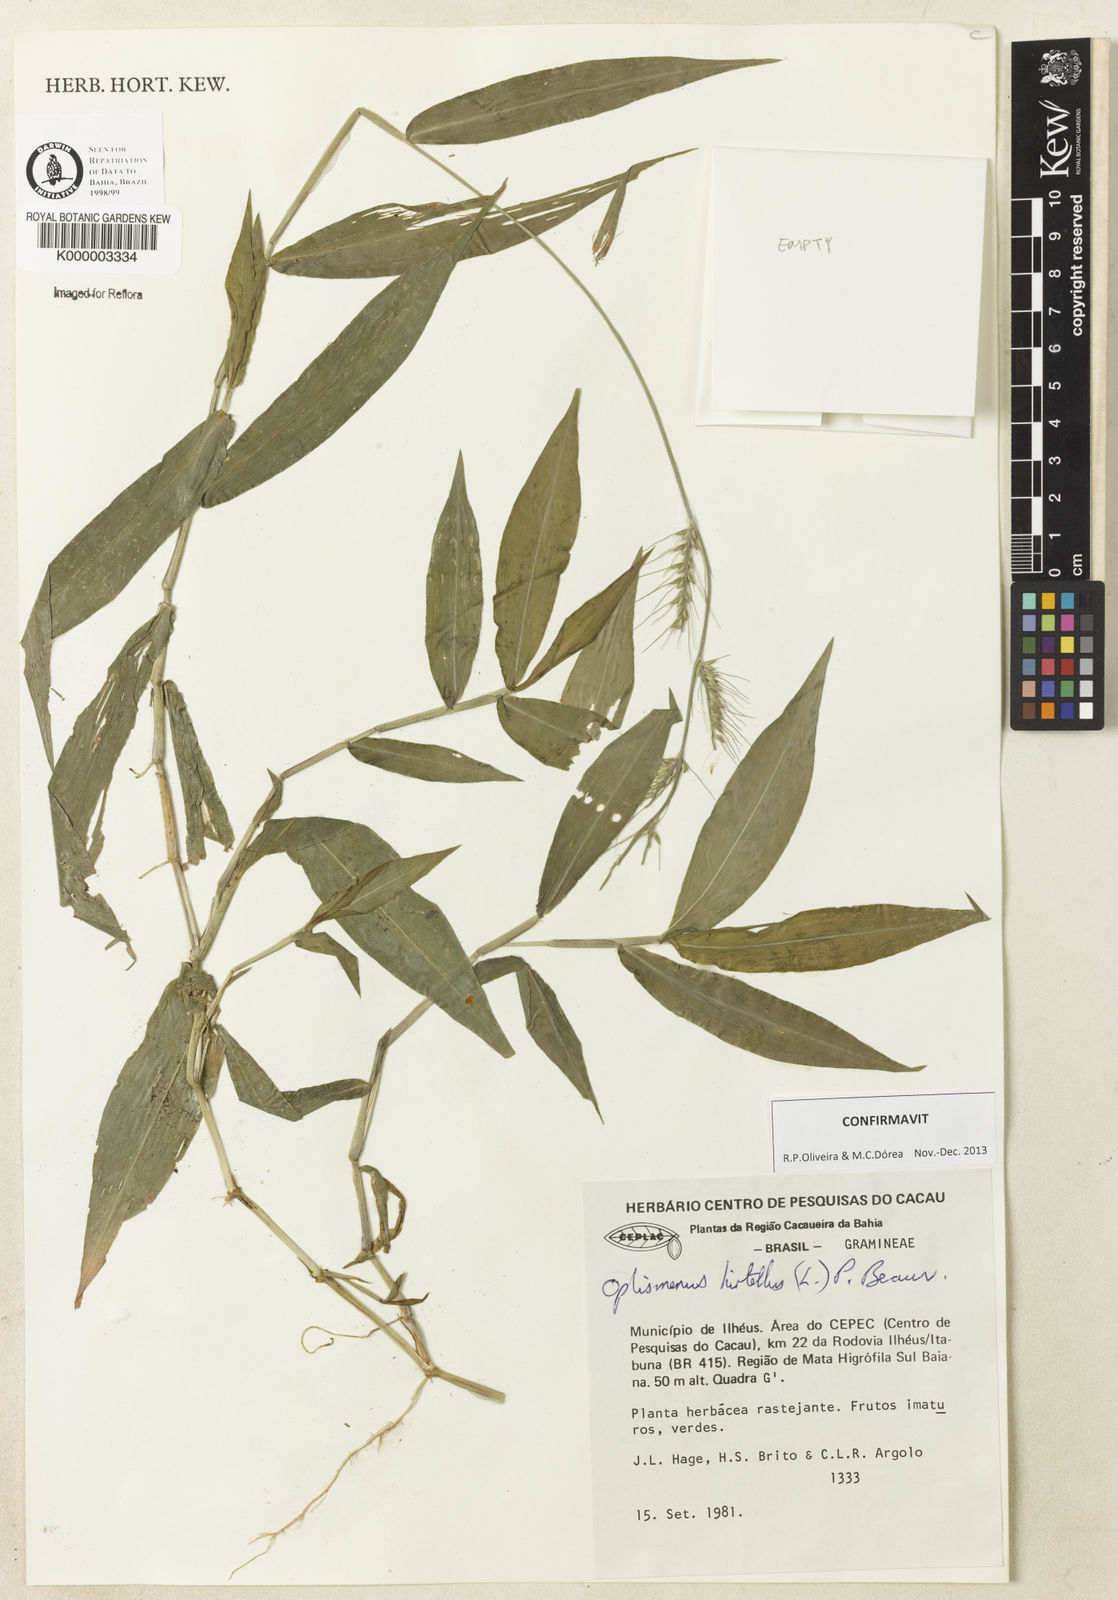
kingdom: Plantae
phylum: Tracheophyta
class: Liliopsida
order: Poales
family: Poaceae
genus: Oplismenus
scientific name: Oplismenus hirtellus
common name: Basketgrass
